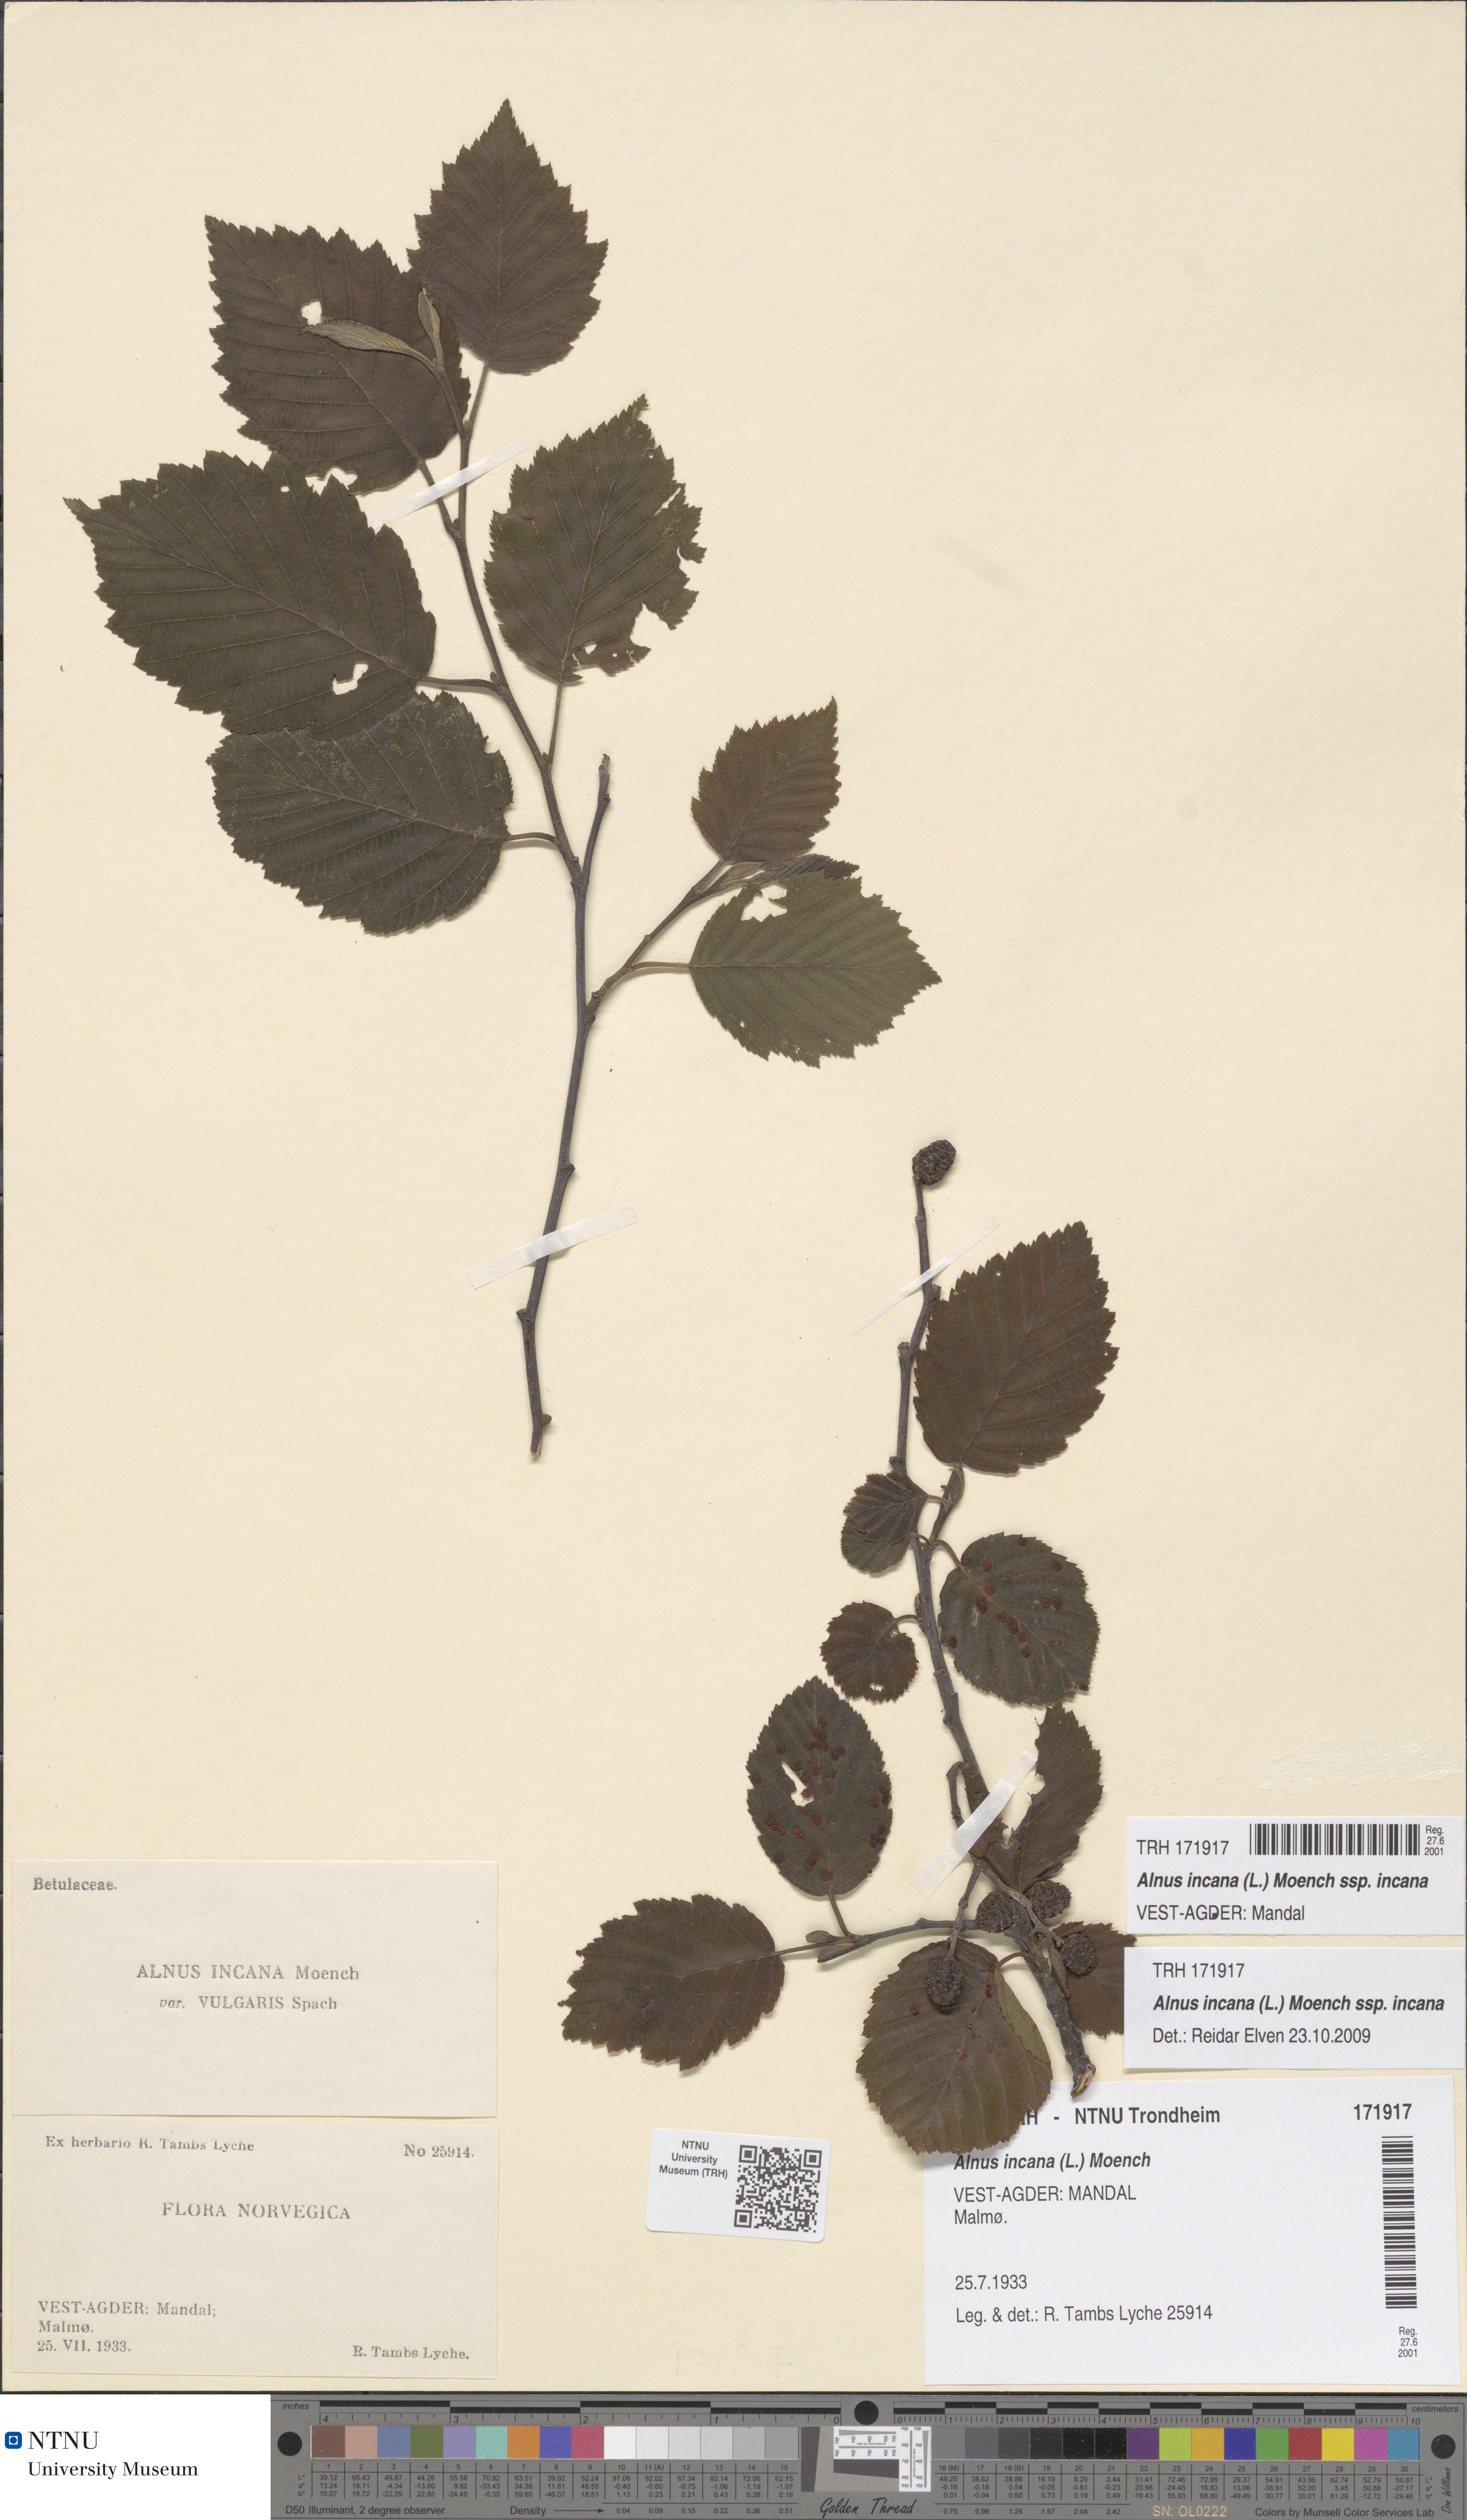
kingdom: Plantae
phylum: Tracheophyta
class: Magnoliopsida
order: Fagales
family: Betulaceae
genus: Alnus
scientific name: Alnus incana
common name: Grey alder
